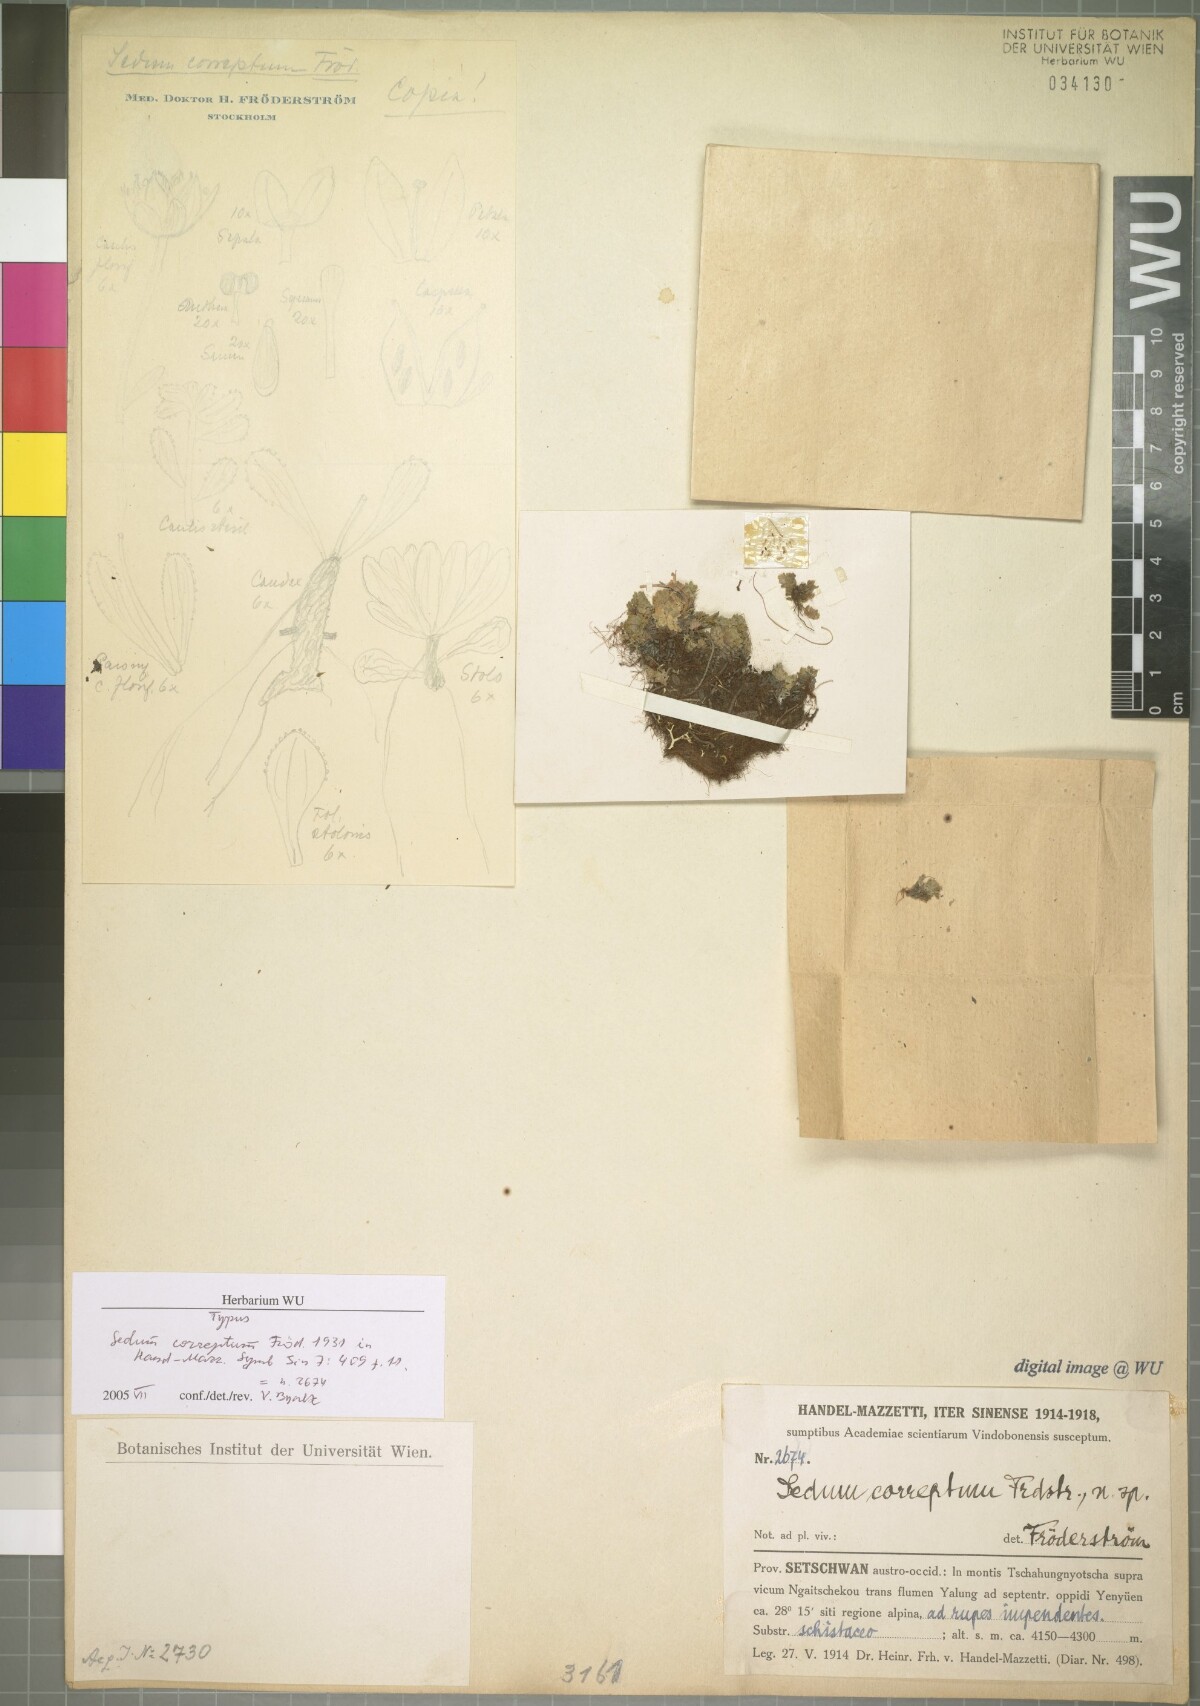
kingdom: Plantae
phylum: Tracheophyta
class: Magnoliopsida
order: Saxifragales
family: Crassulaceae
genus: Sedum
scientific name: Sedum correptum
